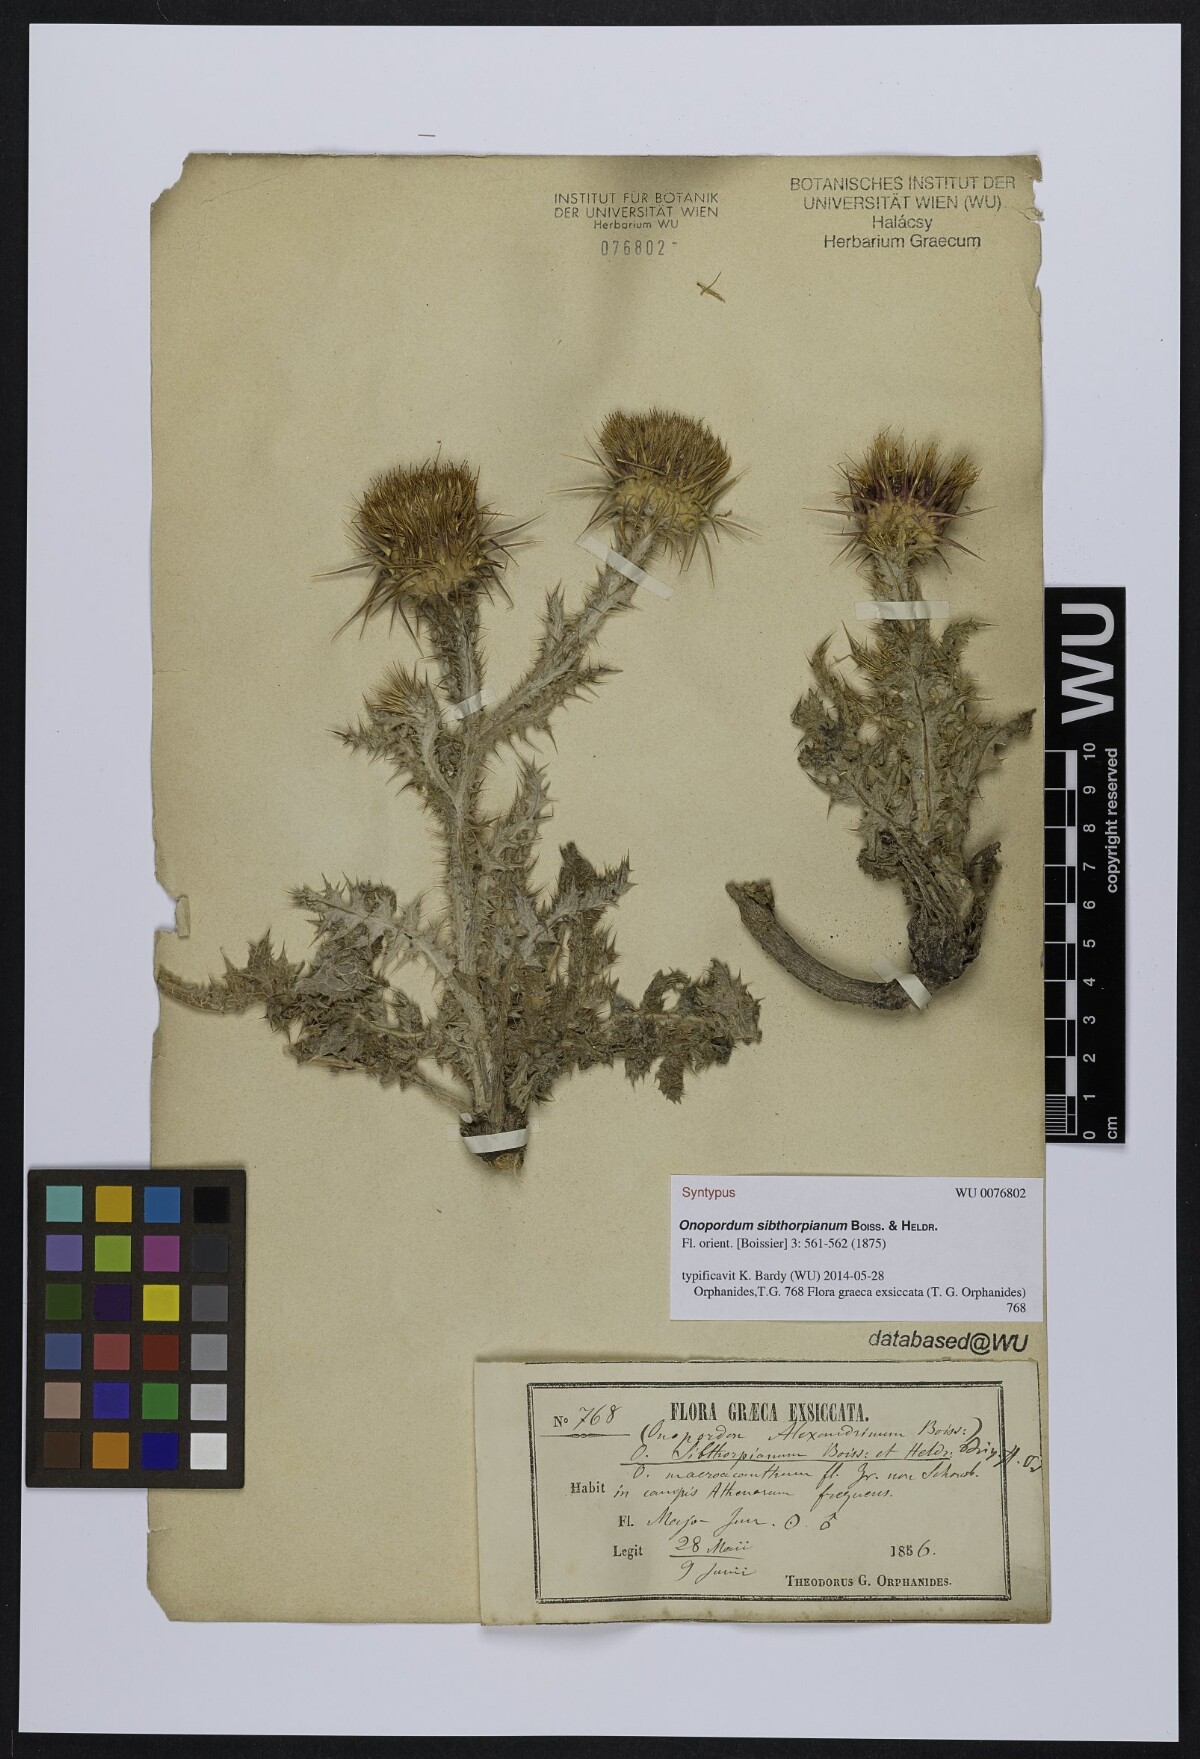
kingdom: Plantae
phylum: Tracheophyta
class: Magnoliopsida
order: Asterales
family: Asteraceae
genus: Onopordum
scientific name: Onopordum boissierianum
